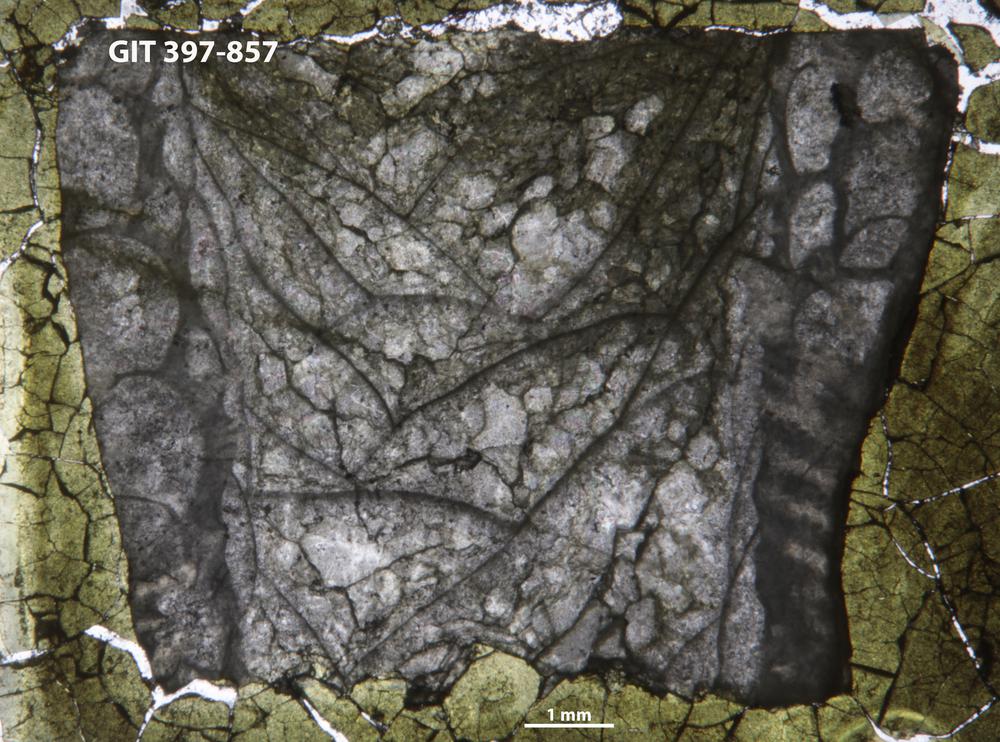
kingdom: Animalia
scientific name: Animalia
